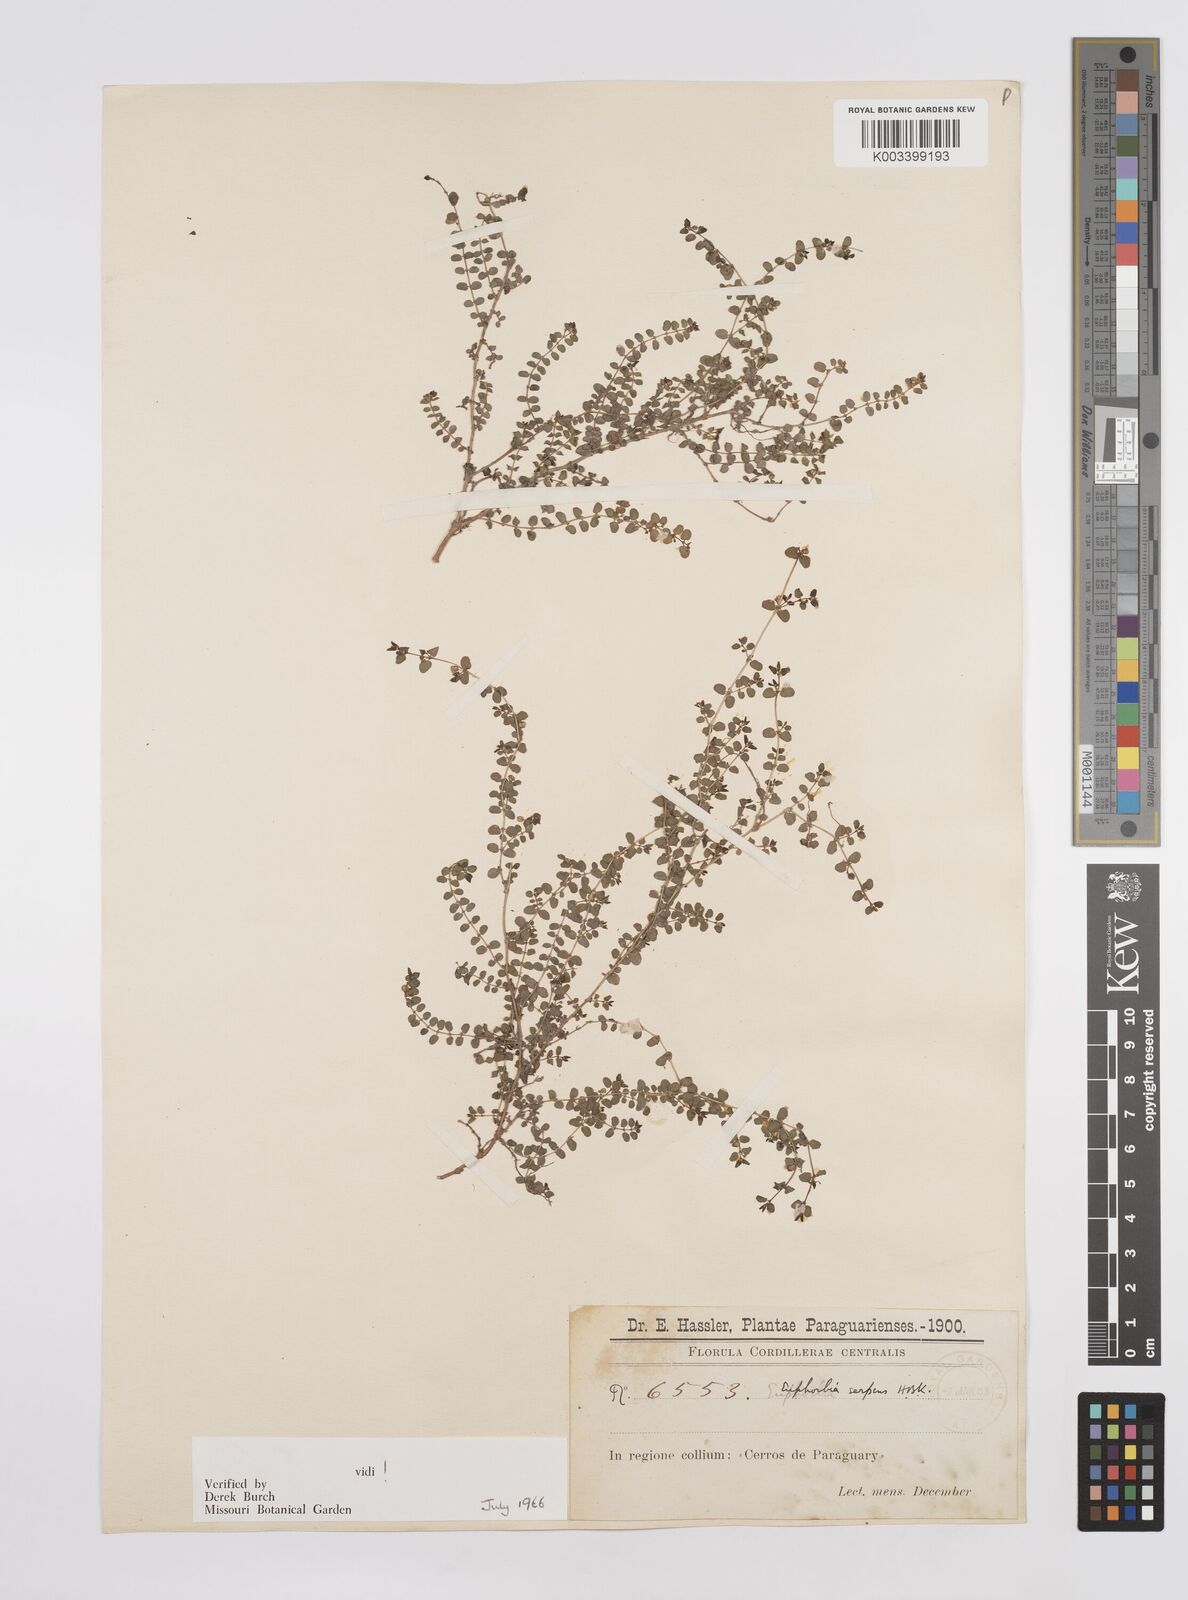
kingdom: Plantae
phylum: Tracheophyta
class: Magnoliopsida
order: Malpighiales
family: Euphorbiaceae
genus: Euphorbia
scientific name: Euphorbia serpens
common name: Matted sandmat
